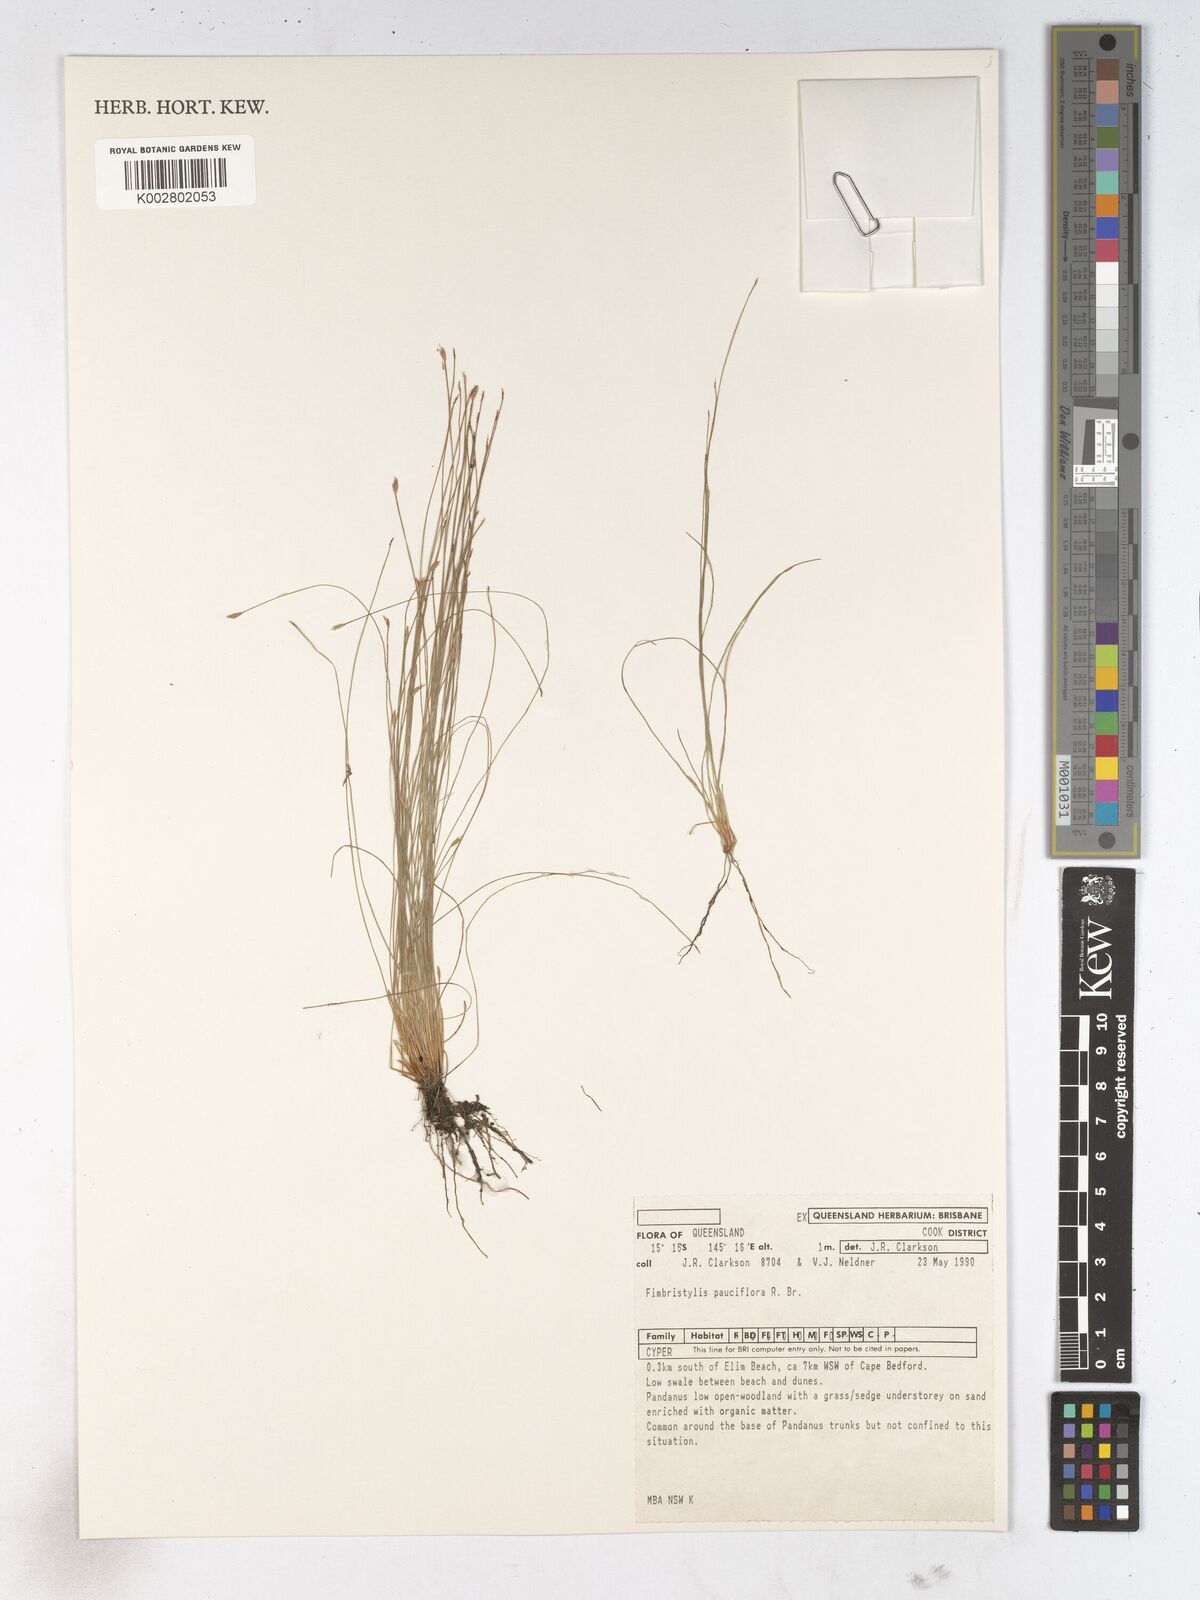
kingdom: Plantae
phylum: Tracheophyta
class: Liliopsida
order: Poales
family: Cyperaceae
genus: Fimbristylis
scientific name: Fimbristylis pauciflora
